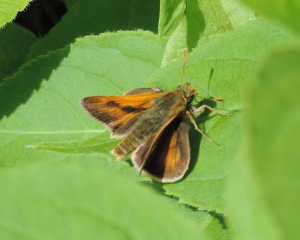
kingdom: Animalia
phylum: Arthropoda
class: Insecta
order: Lepidoptera
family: Hesperiidae
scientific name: Hesperiidae
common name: Skippers
